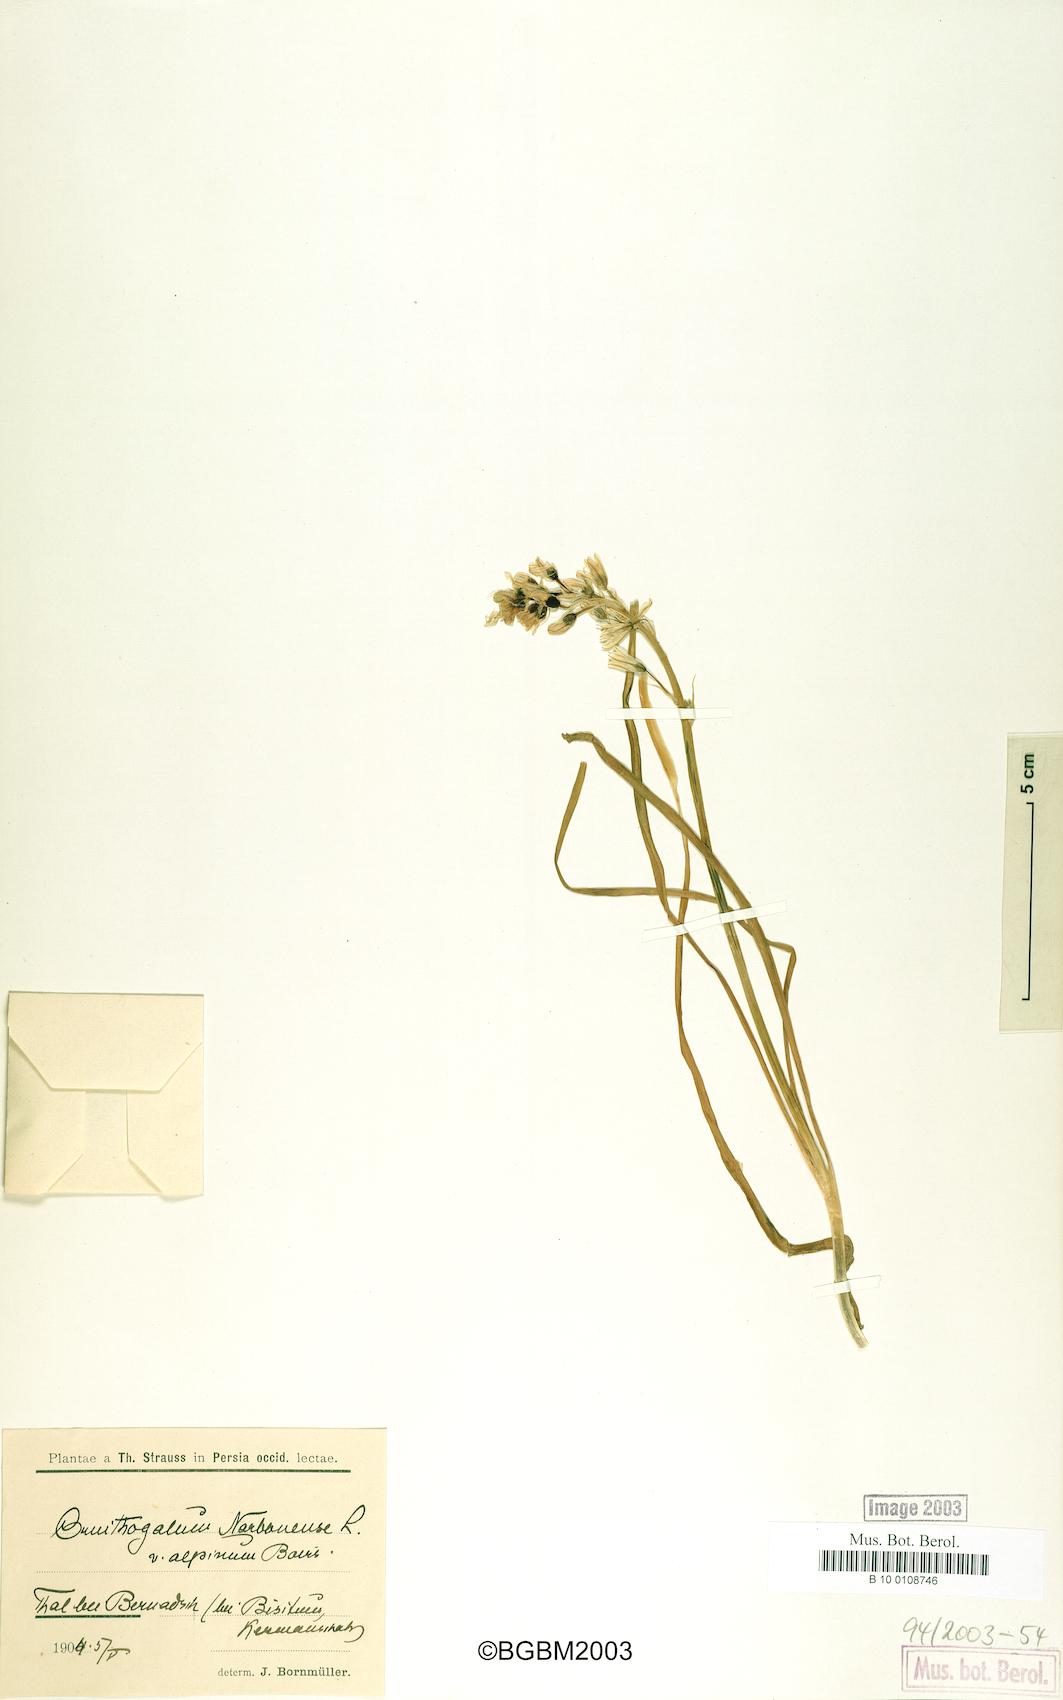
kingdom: Plantae
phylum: Tracheophyta
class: Liliopsida
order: Asparagales
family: Asparagaceae
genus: Ornithogalum
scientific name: Ornithogalum narbonense
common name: Bath-asparagus
